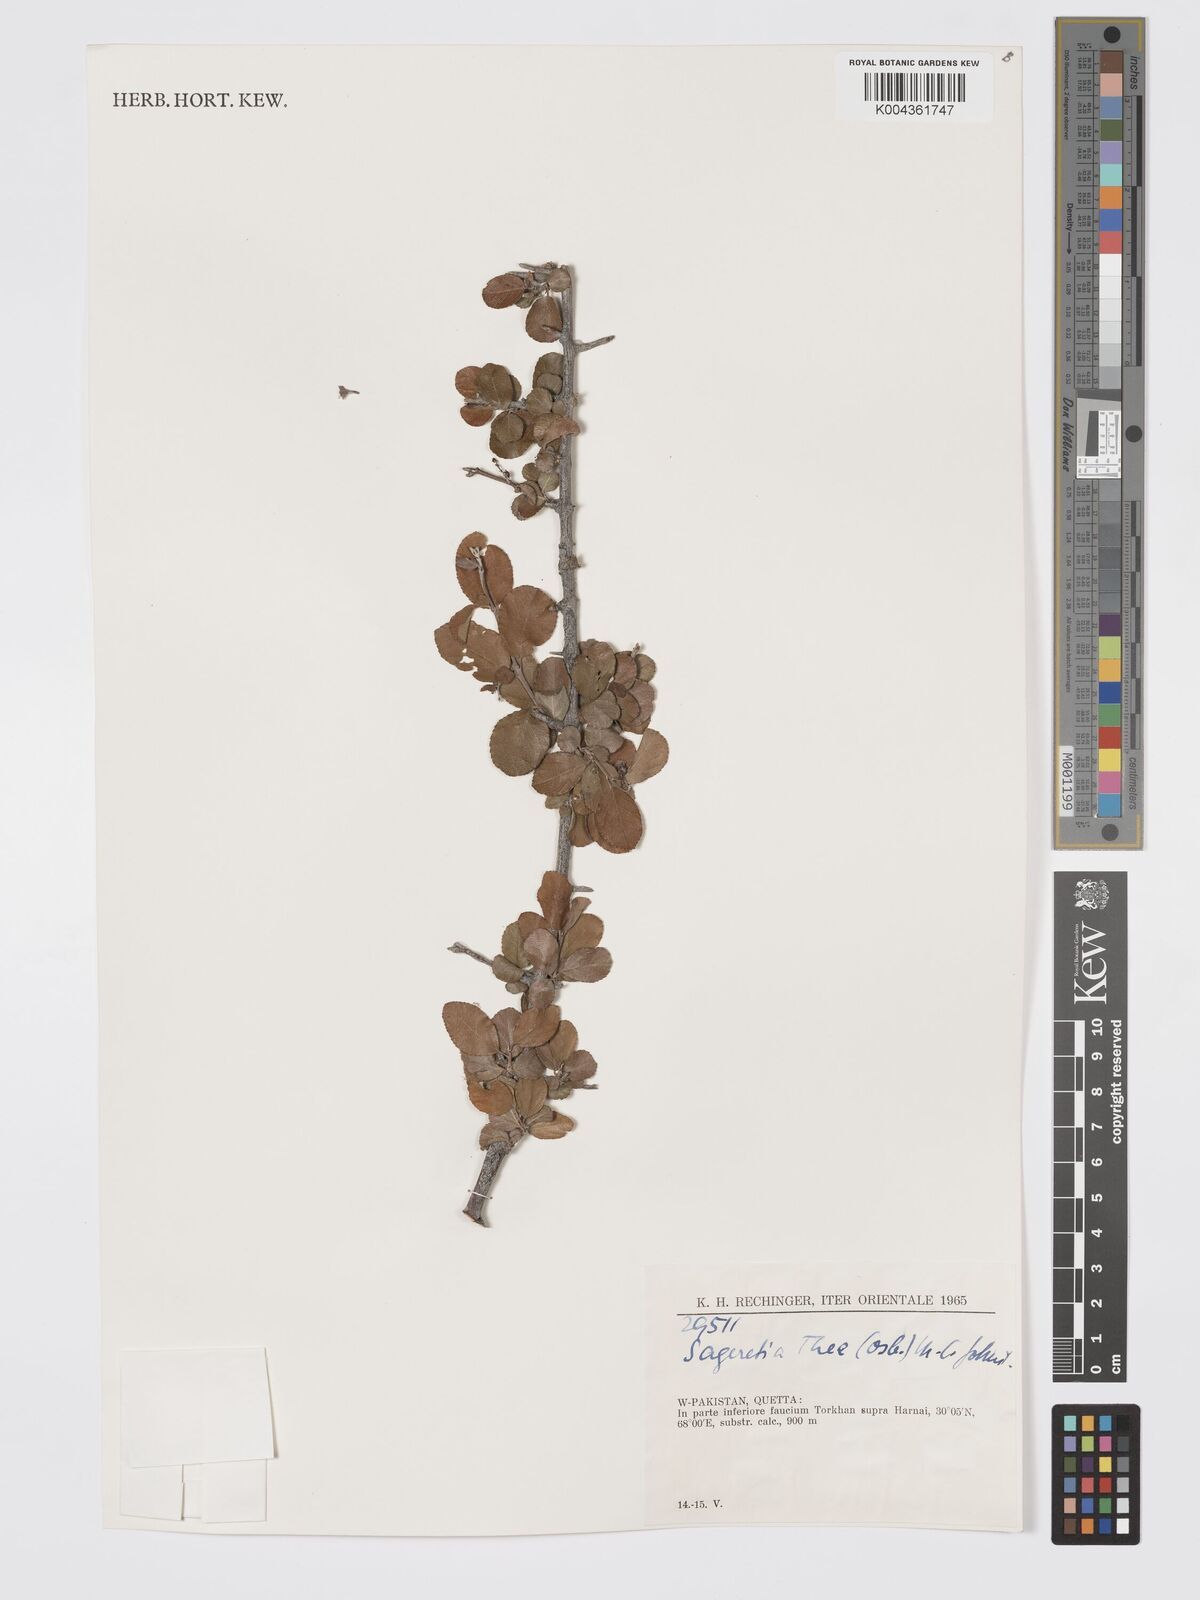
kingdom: Plantae
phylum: Tracheophyta
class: Magnoliopsida
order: Rosales
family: Rhamnaceae
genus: Sageretia
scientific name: Sageretia thea
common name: Pauper's-tea
